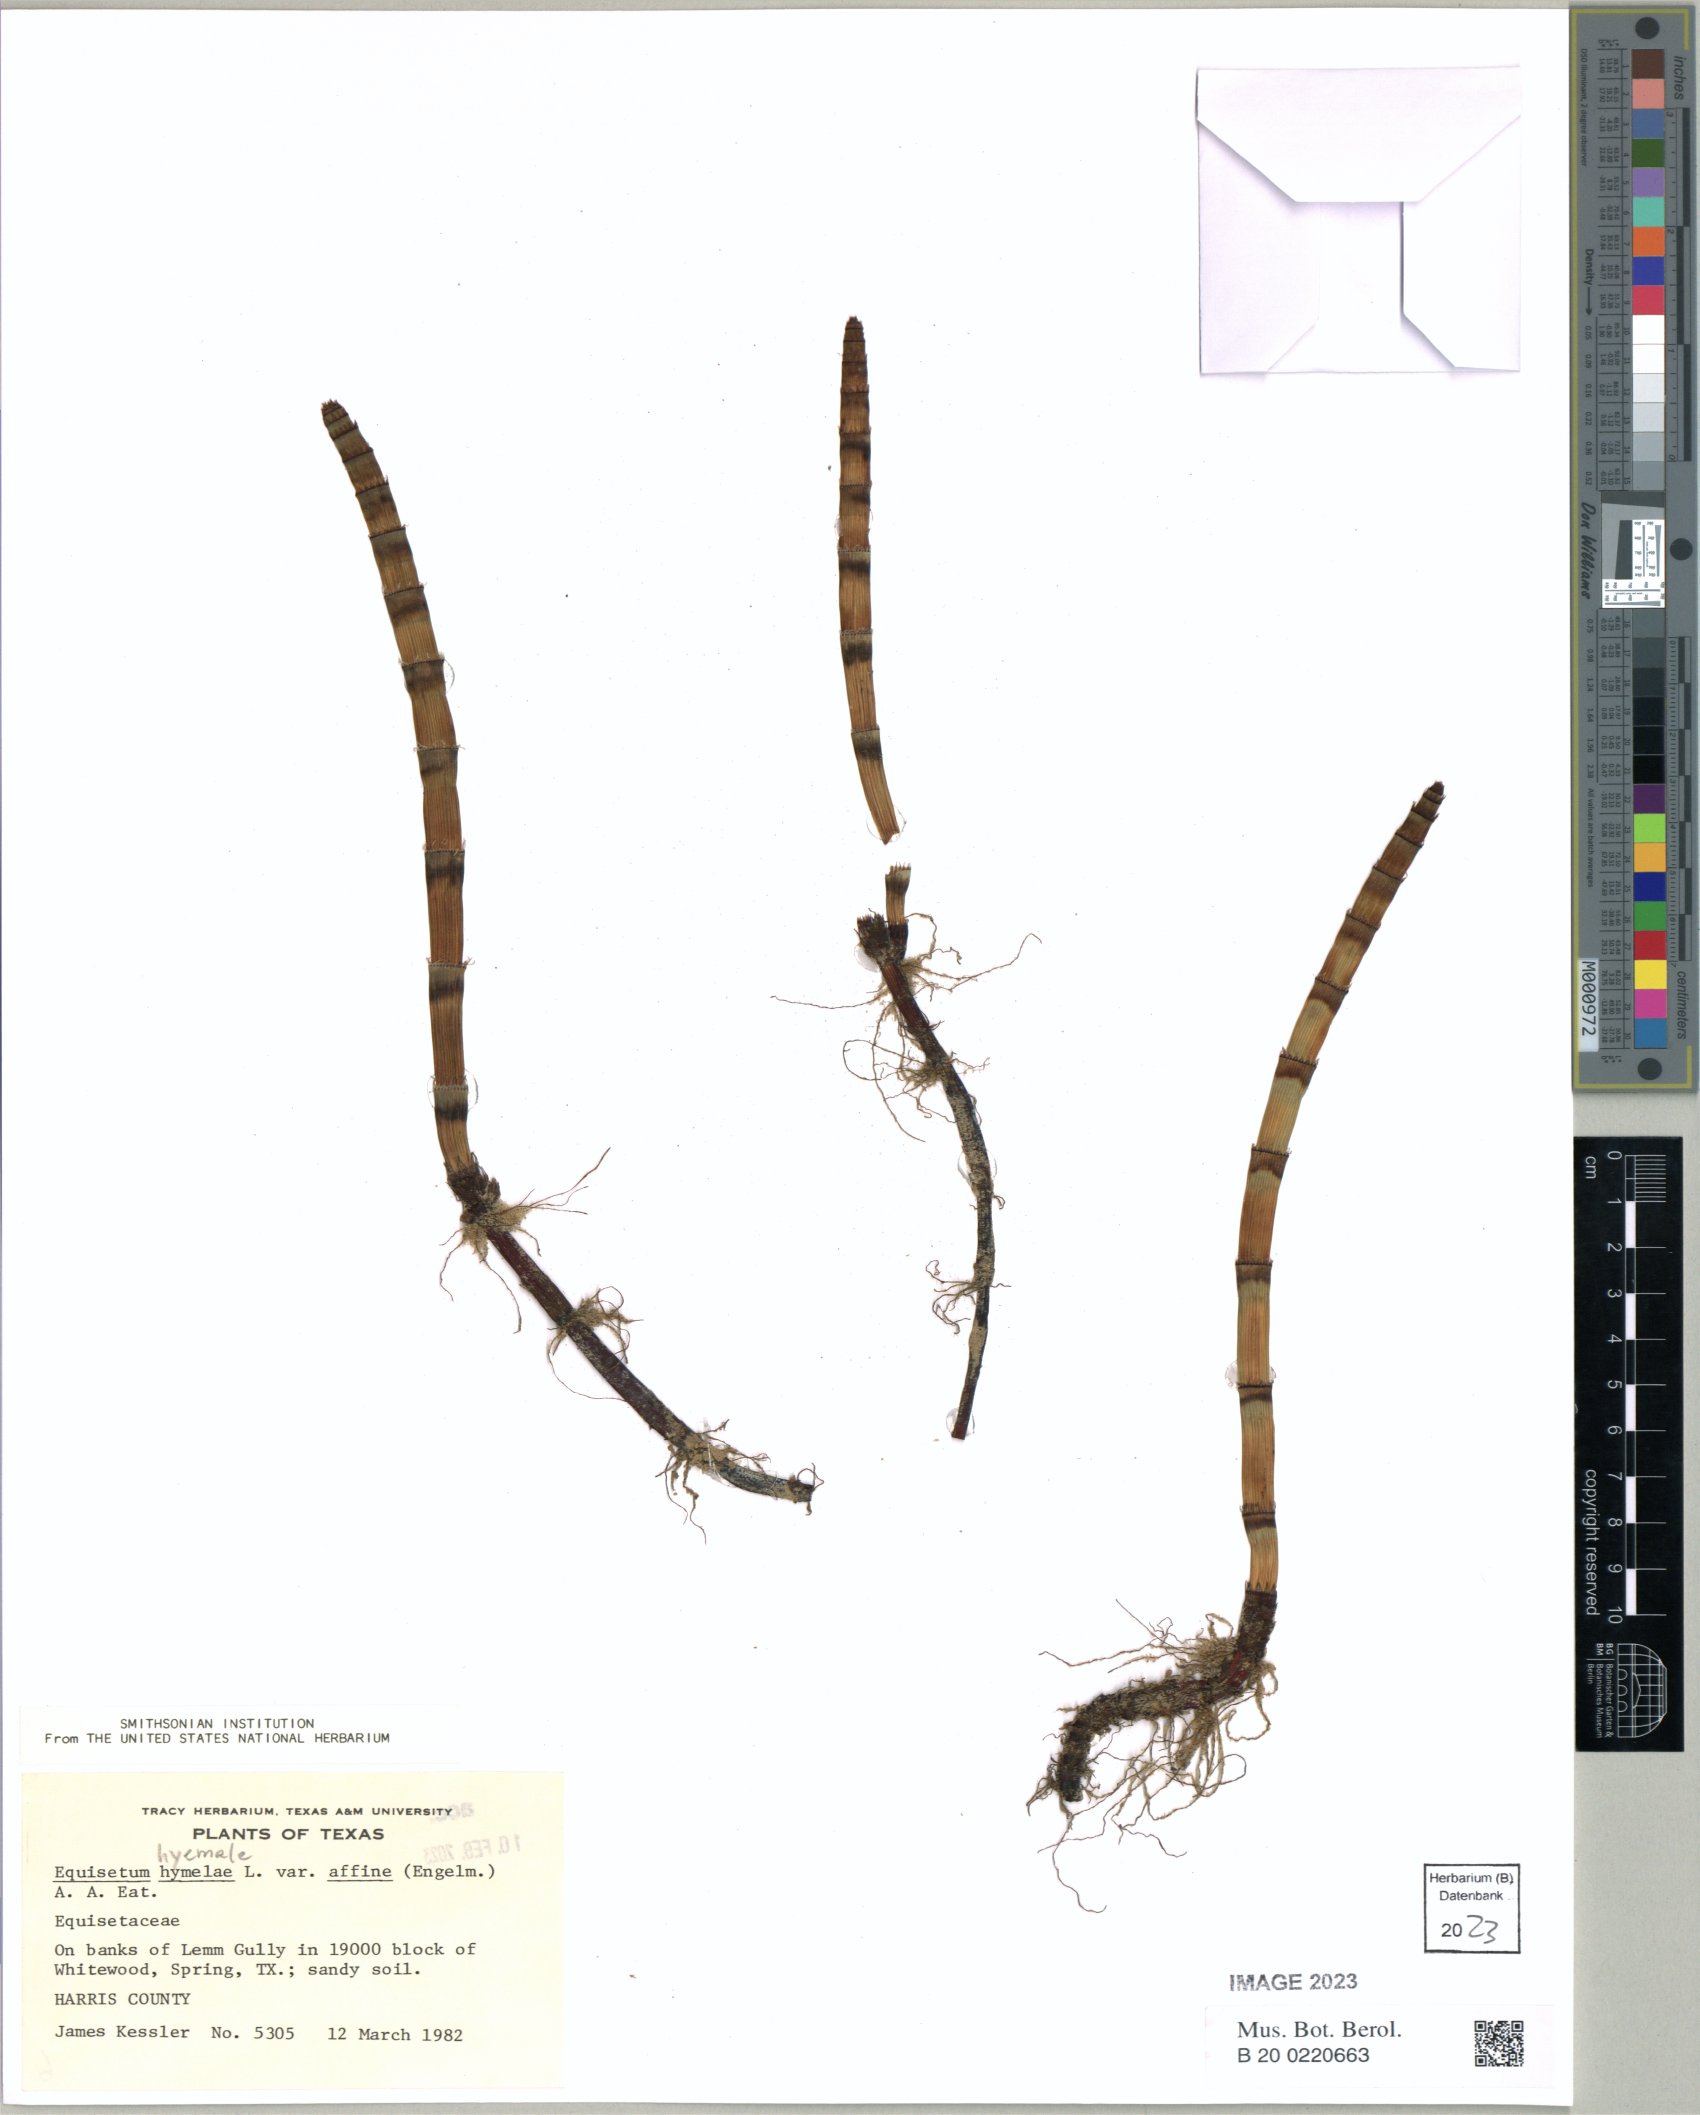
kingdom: Plantae
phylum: Tracheophyta
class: Polypodiopsida
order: Equisetales
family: Equisetaceae
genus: Equisetum
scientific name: Equisetum praealtum
